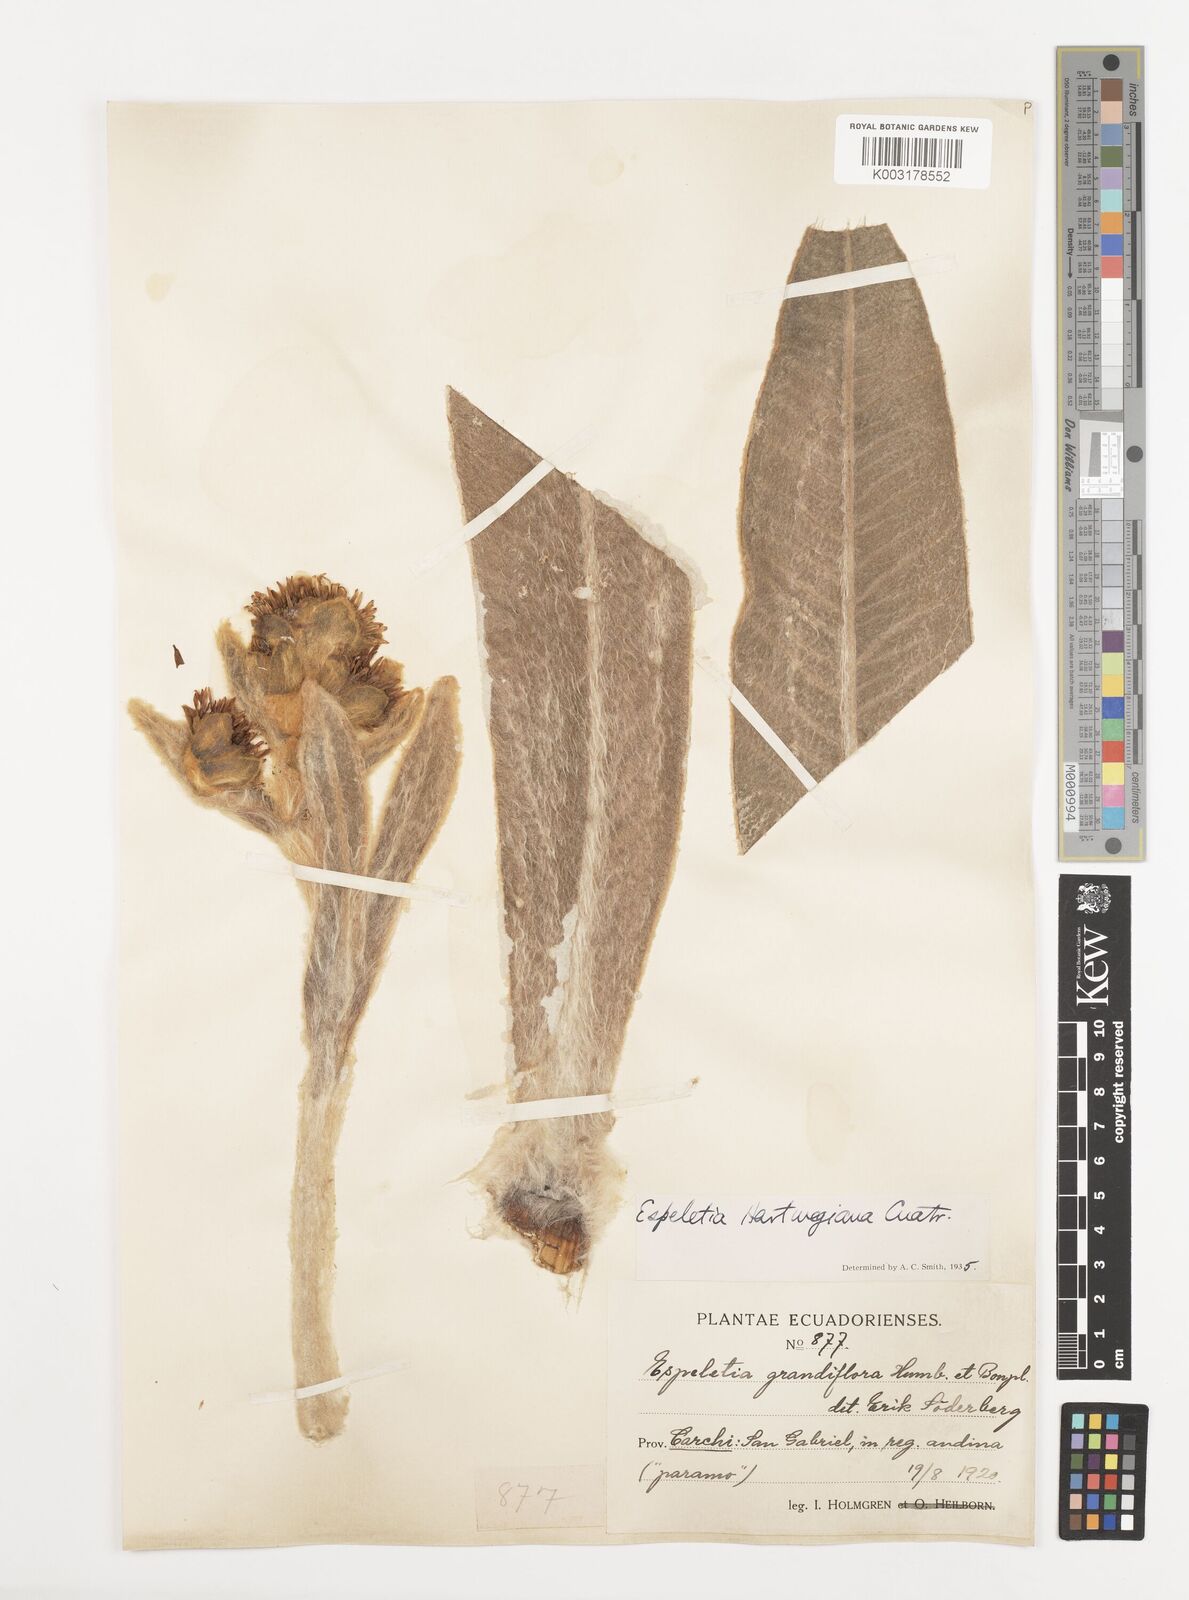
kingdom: Plantae
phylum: Tracheophyta
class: Magnoliopsida
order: Asterales
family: Asteraceae
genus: Espeletia
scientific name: Espeletia hartwegiana
